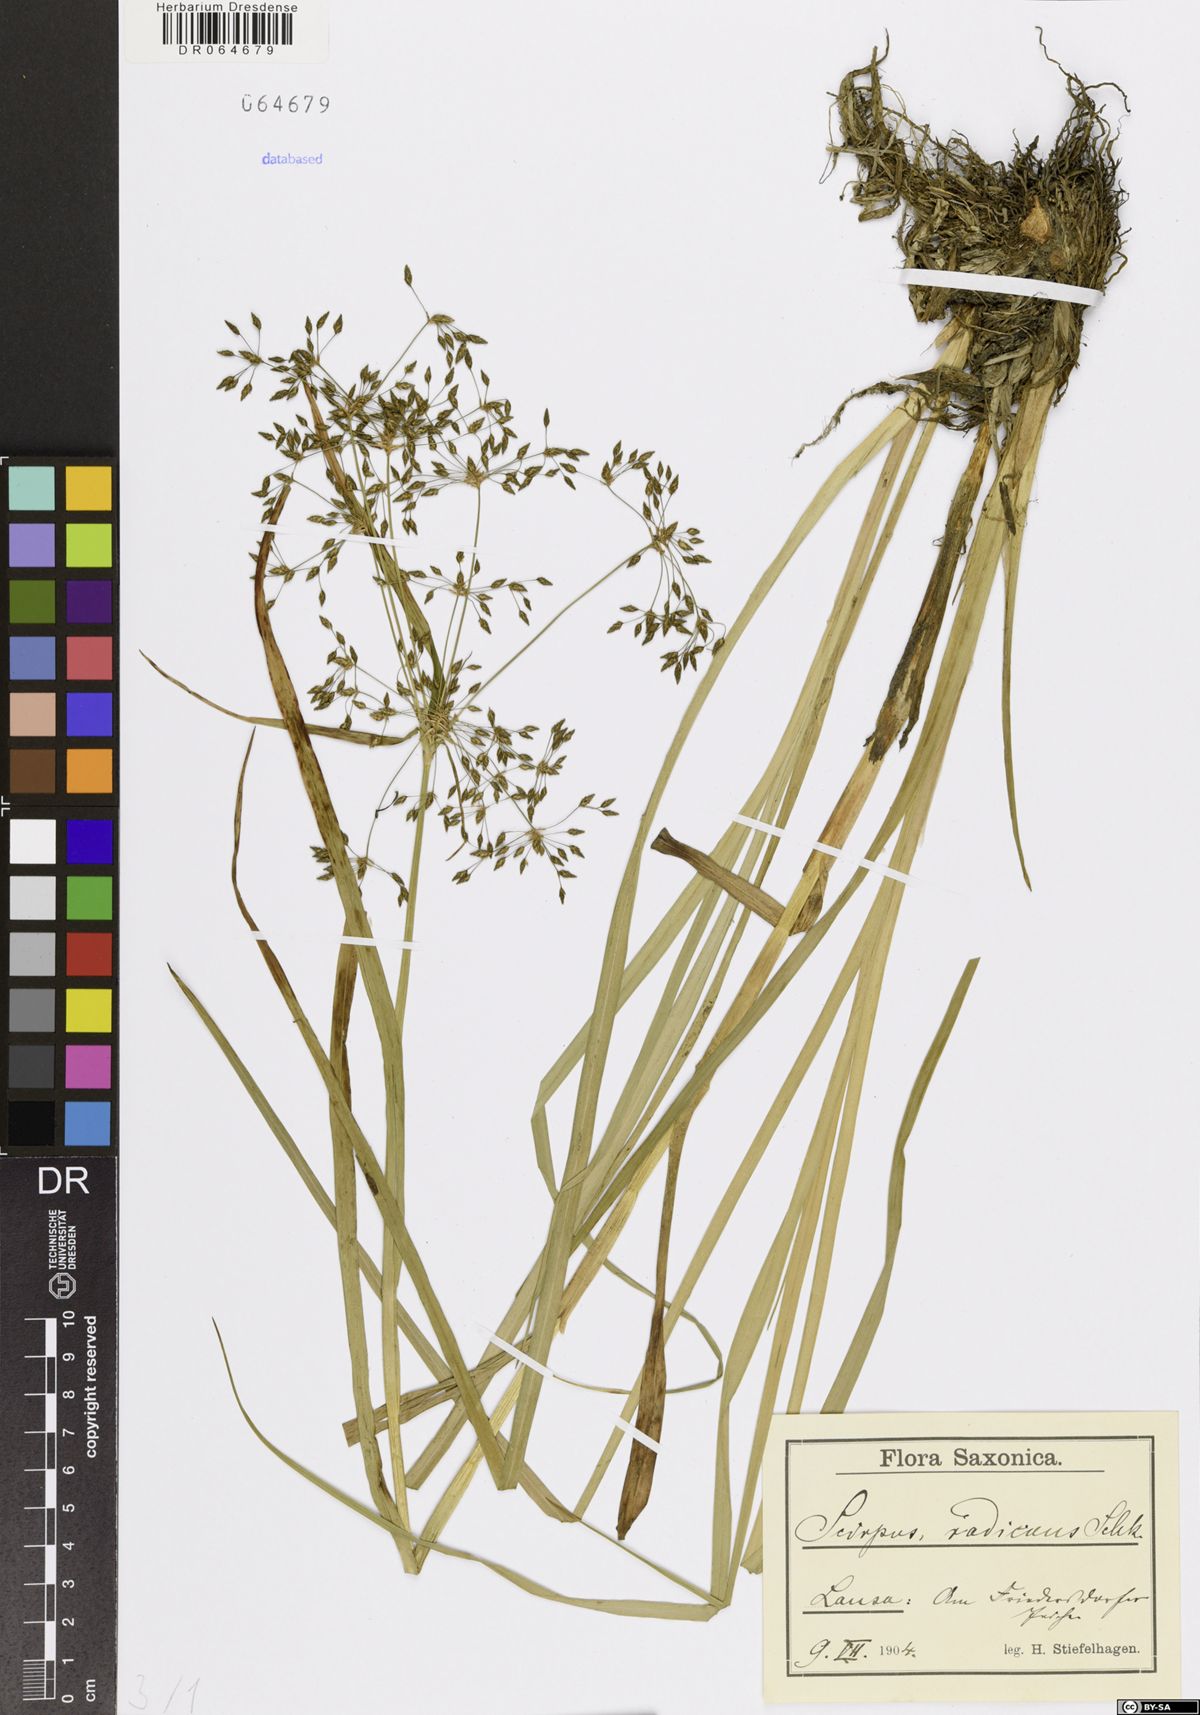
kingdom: Plantae
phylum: Tracheophyta
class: Liliopsida
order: Poales
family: Cyperaceae
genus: Scirpus
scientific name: Scirpus radicans
